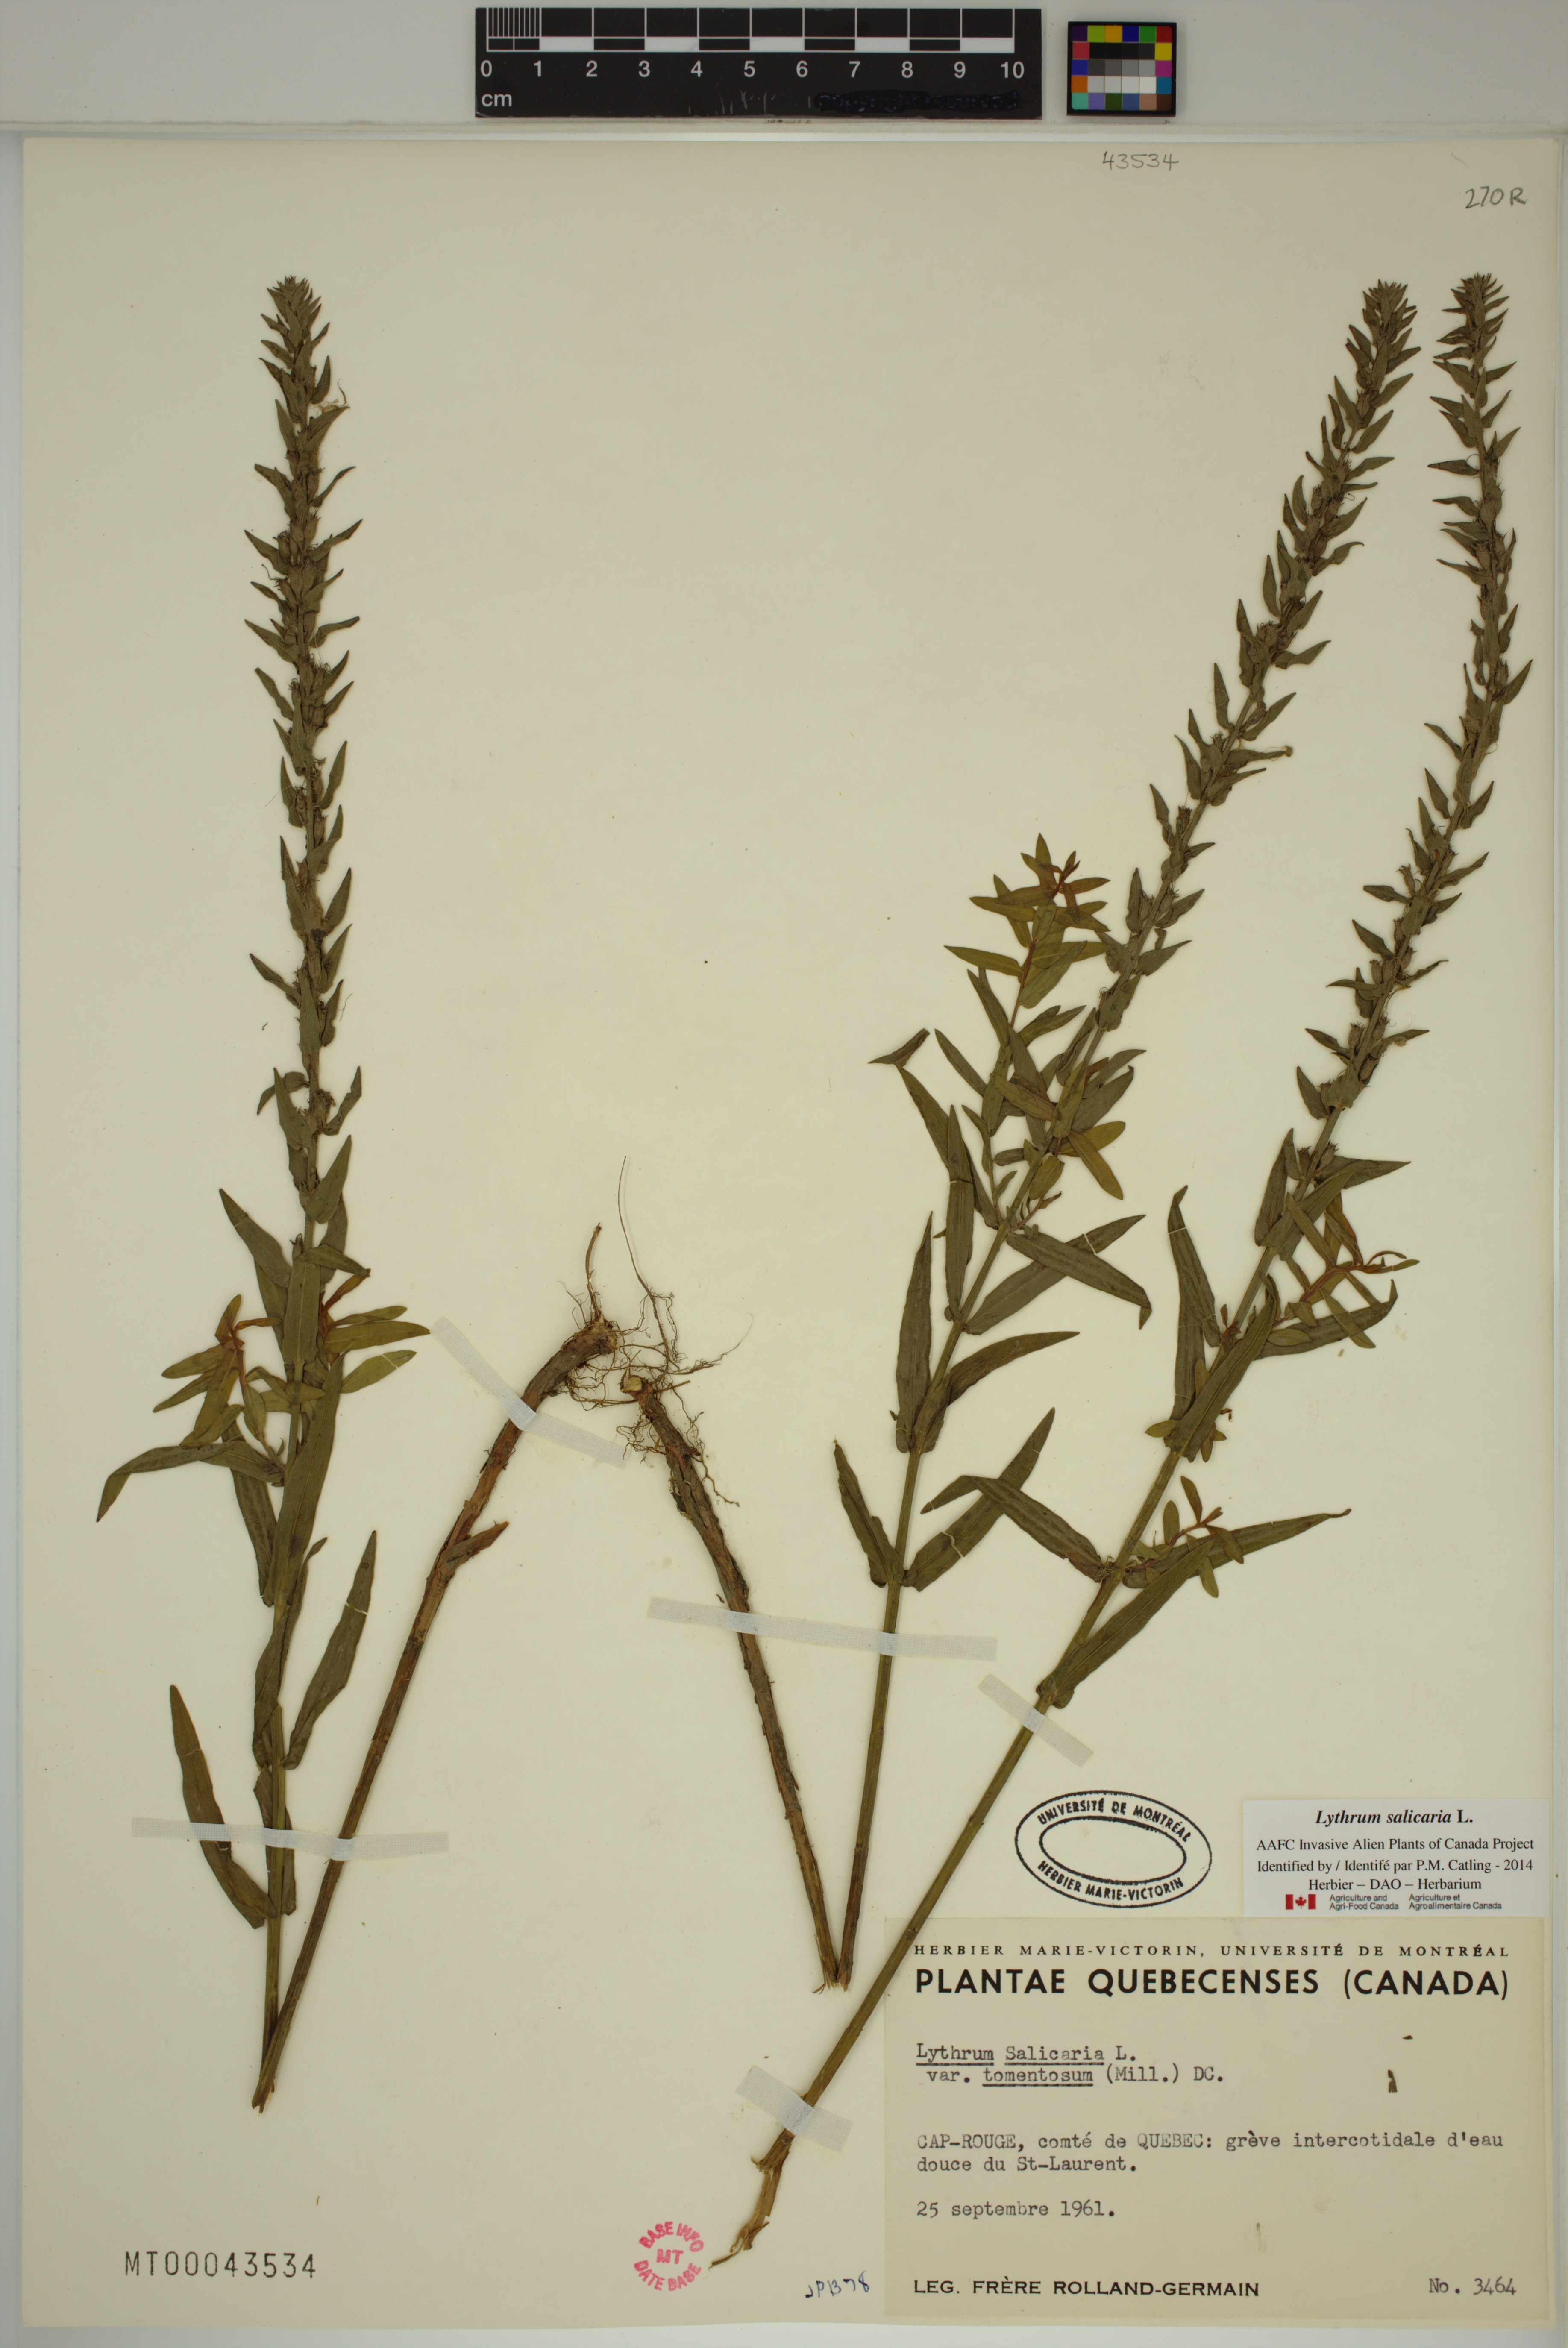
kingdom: Plantae
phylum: Tracheophyta
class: Magnoliopsida
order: Myrtales
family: Lythraceae
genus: Lythrum
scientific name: Lythrum salicaria
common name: Purple loosestrife
